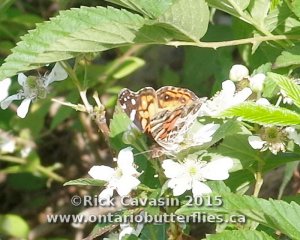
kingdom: Animalia
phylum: Arthropoda
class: Insecta
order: Lepidoptera
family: Nymphalidae
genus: Vanessa
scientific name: Vanessa virginiensis
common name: American Lady
